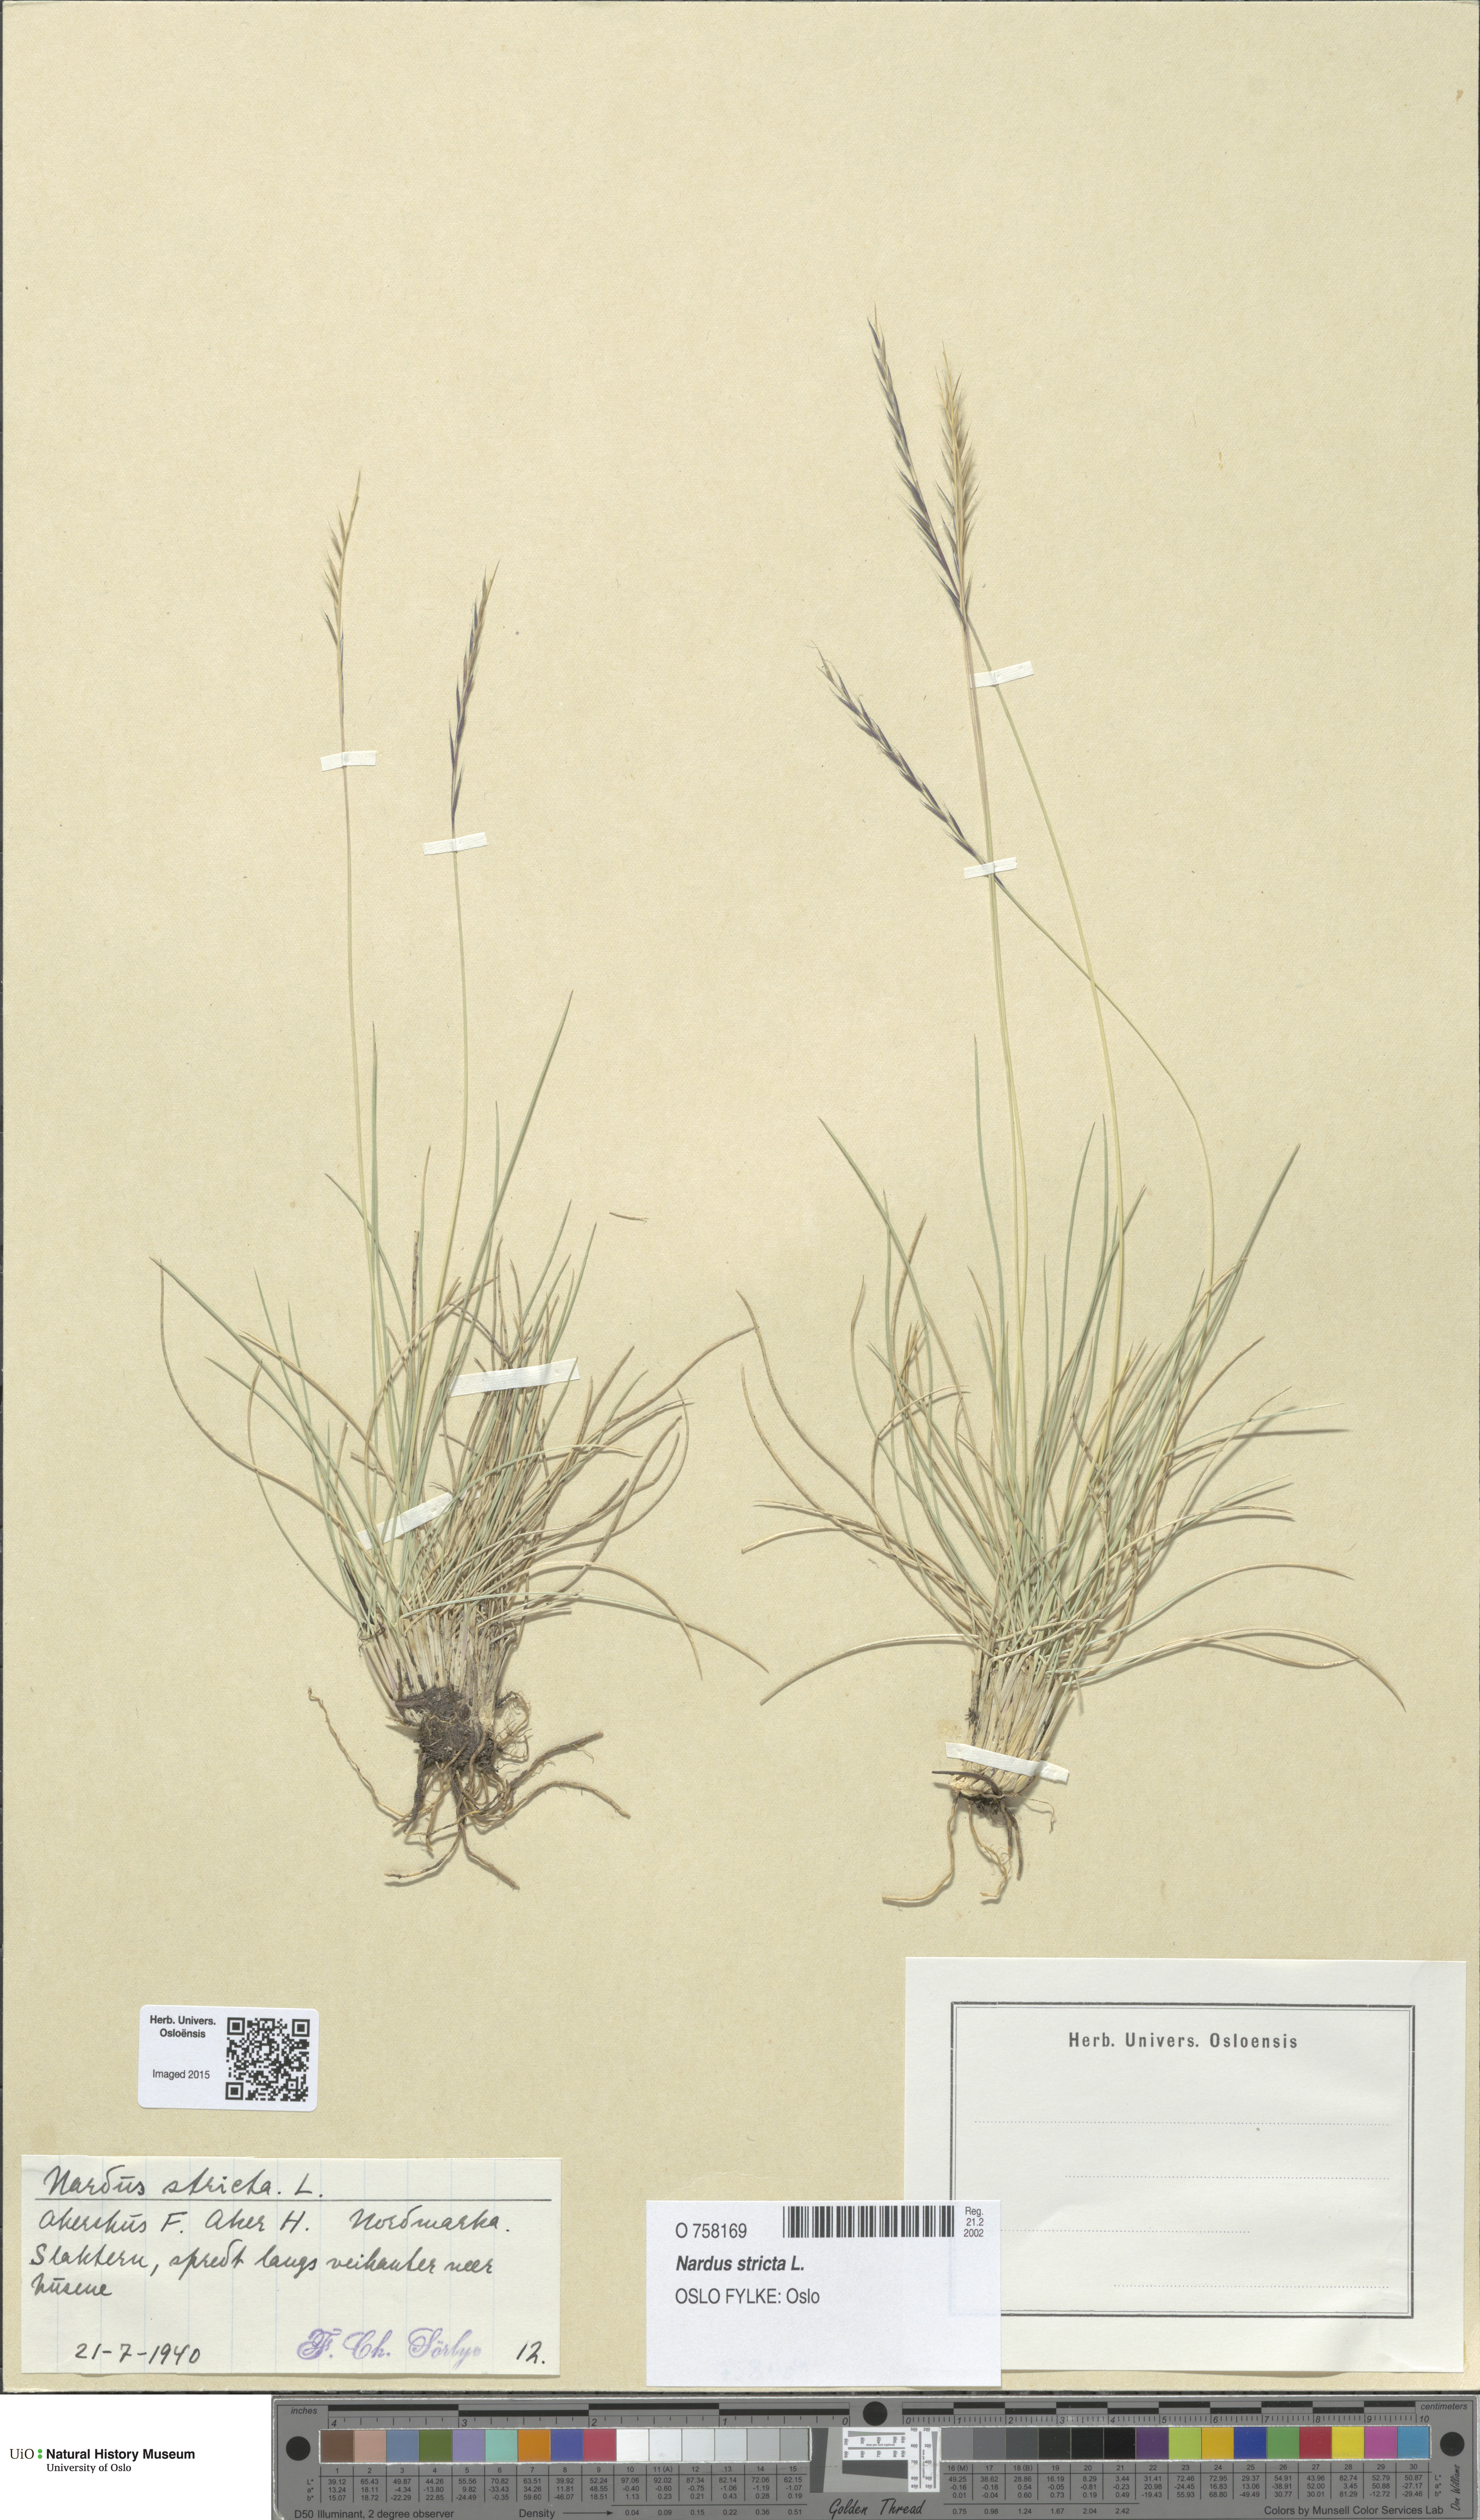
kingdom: Plantae
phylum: Tracheophyta
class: Liliopsida
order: Poales
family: Poaceae
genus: Nardus
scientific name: Nardus stricta
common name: Mat-grass
